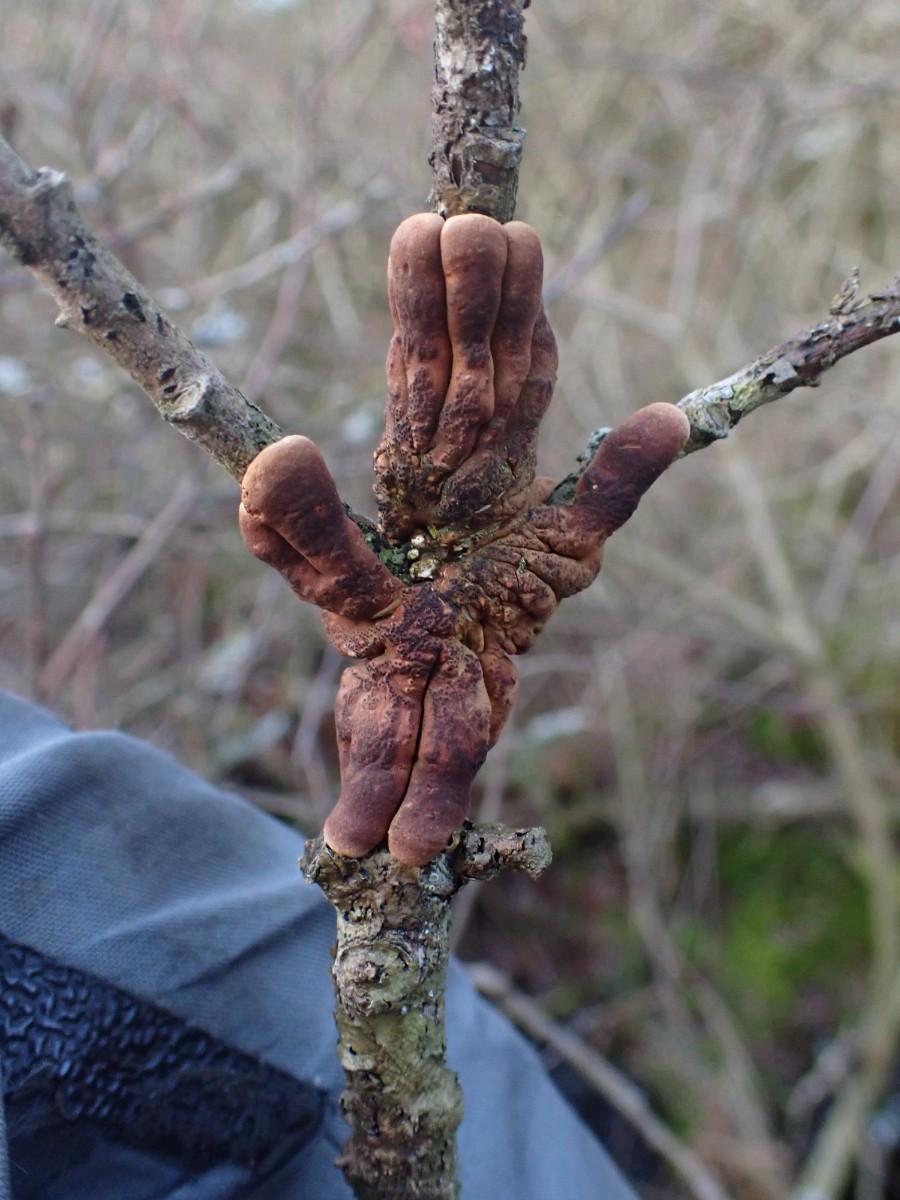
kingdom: Fungi
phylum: Ascomycota
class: Sordariomycetes
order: Hypocreales
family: Hypocreaceae
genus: Hypocreopsis
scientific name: Hypocreopsis lichenoides
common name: pilfinger
